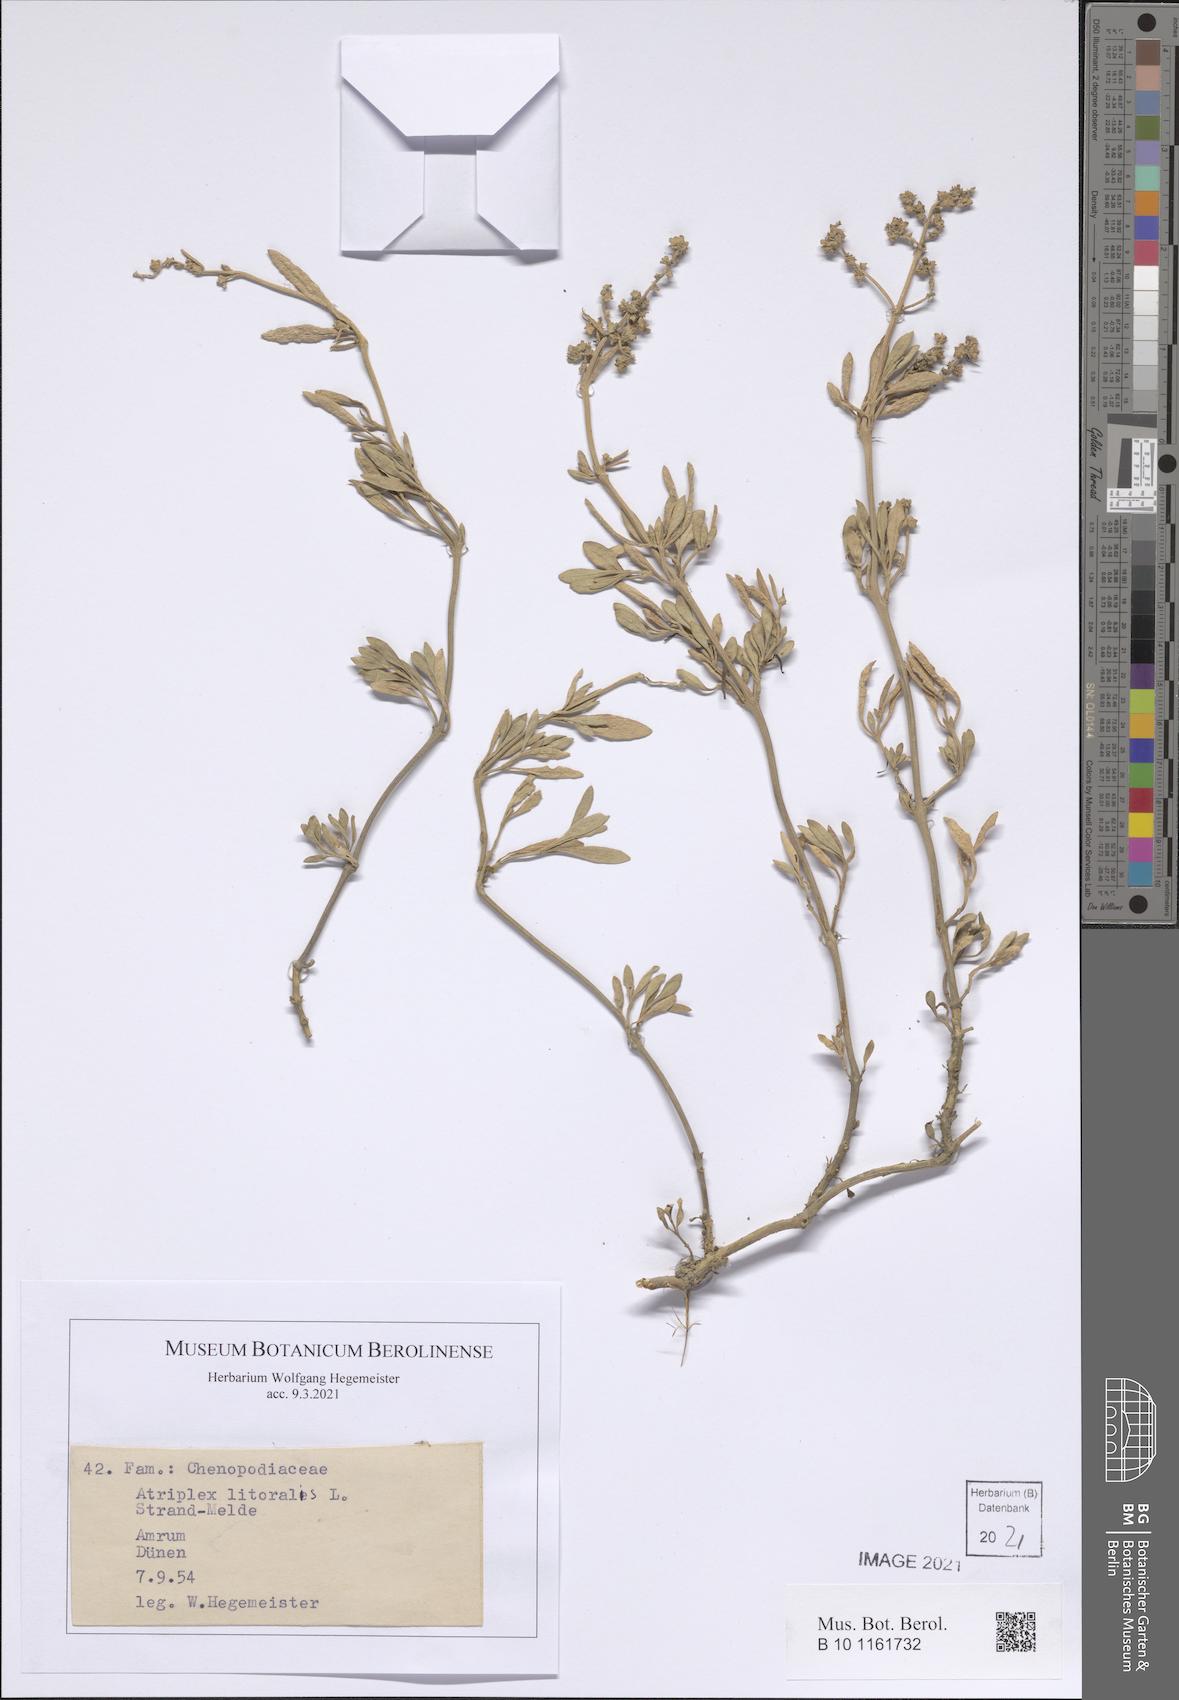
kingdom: Plantae
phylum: Tracheophyta
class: Magnoliopsida
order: Caryophyllales
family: Amaranthaceae
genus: Atriplex
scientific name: Atriplex littoralis
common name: Grass-leaved orache
